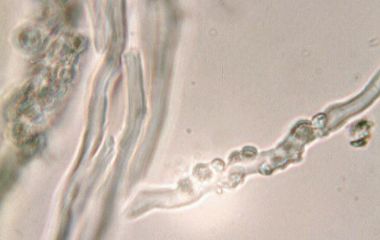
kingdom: Fungi
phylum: Basidiomycota
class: Agaricomycetes
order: Hymenochaetales
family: Schizoporaceae
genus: Schizopora
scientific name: Schizopora paradoxa
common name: hvid tandsvamp
